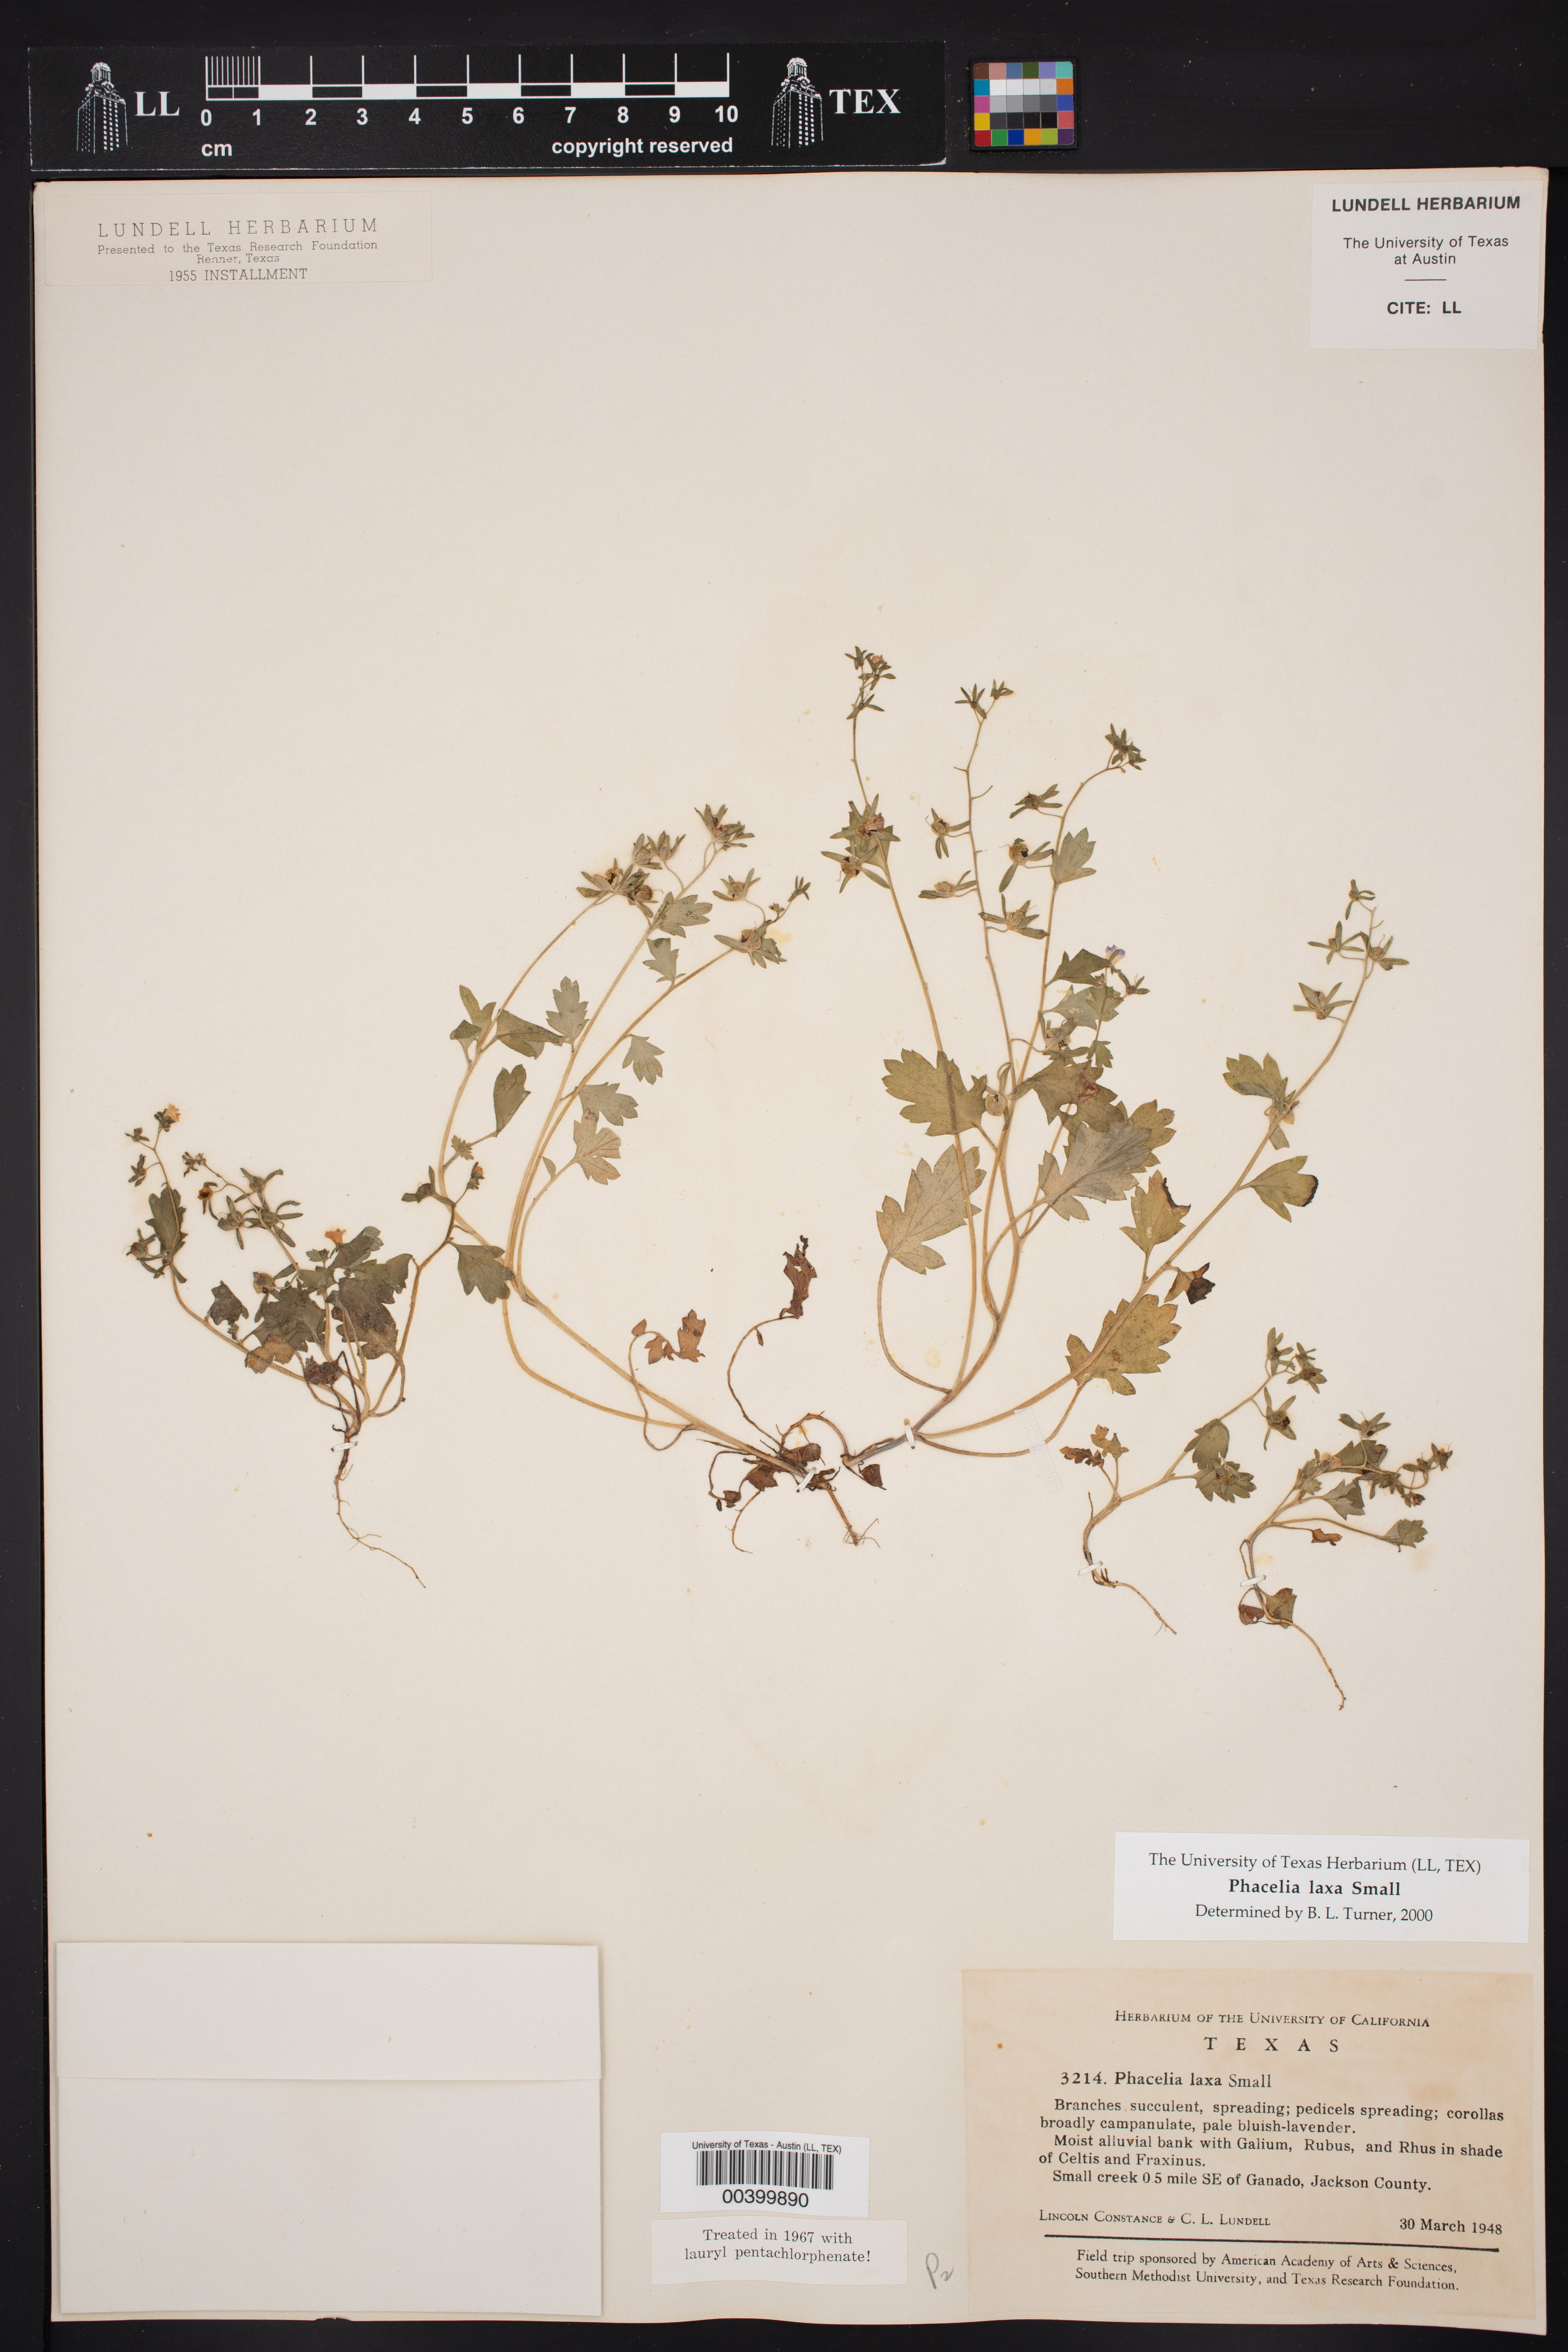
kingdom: Plantae
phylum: Tracheophyta
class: Magnoliopsida
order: Boraginales
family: Hydrophyllaceae
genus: Phacelia
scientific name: Phacelia laxa
